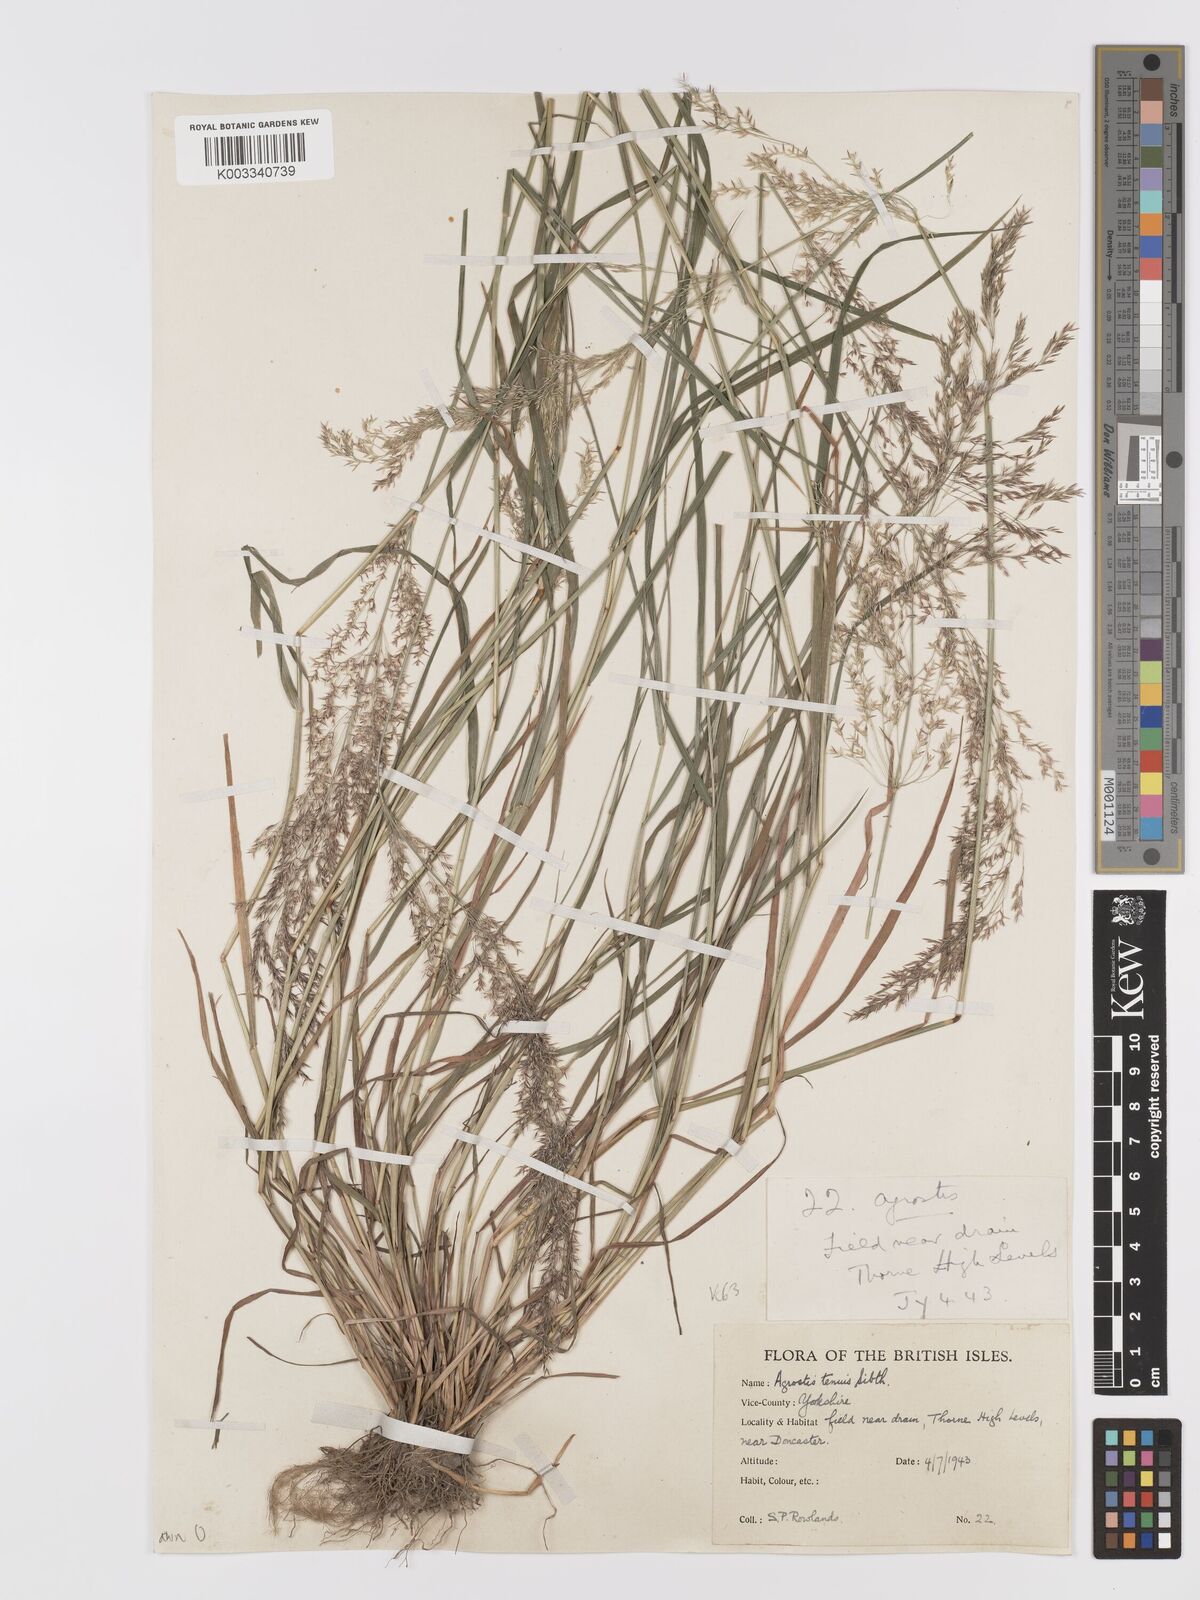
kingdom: Plantae
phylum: Tracheophyta
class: Liliopsida
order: Poales
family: Poaceae
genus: Agrostis
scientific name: Agrostis capillaris
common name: Colonial bentgrass
